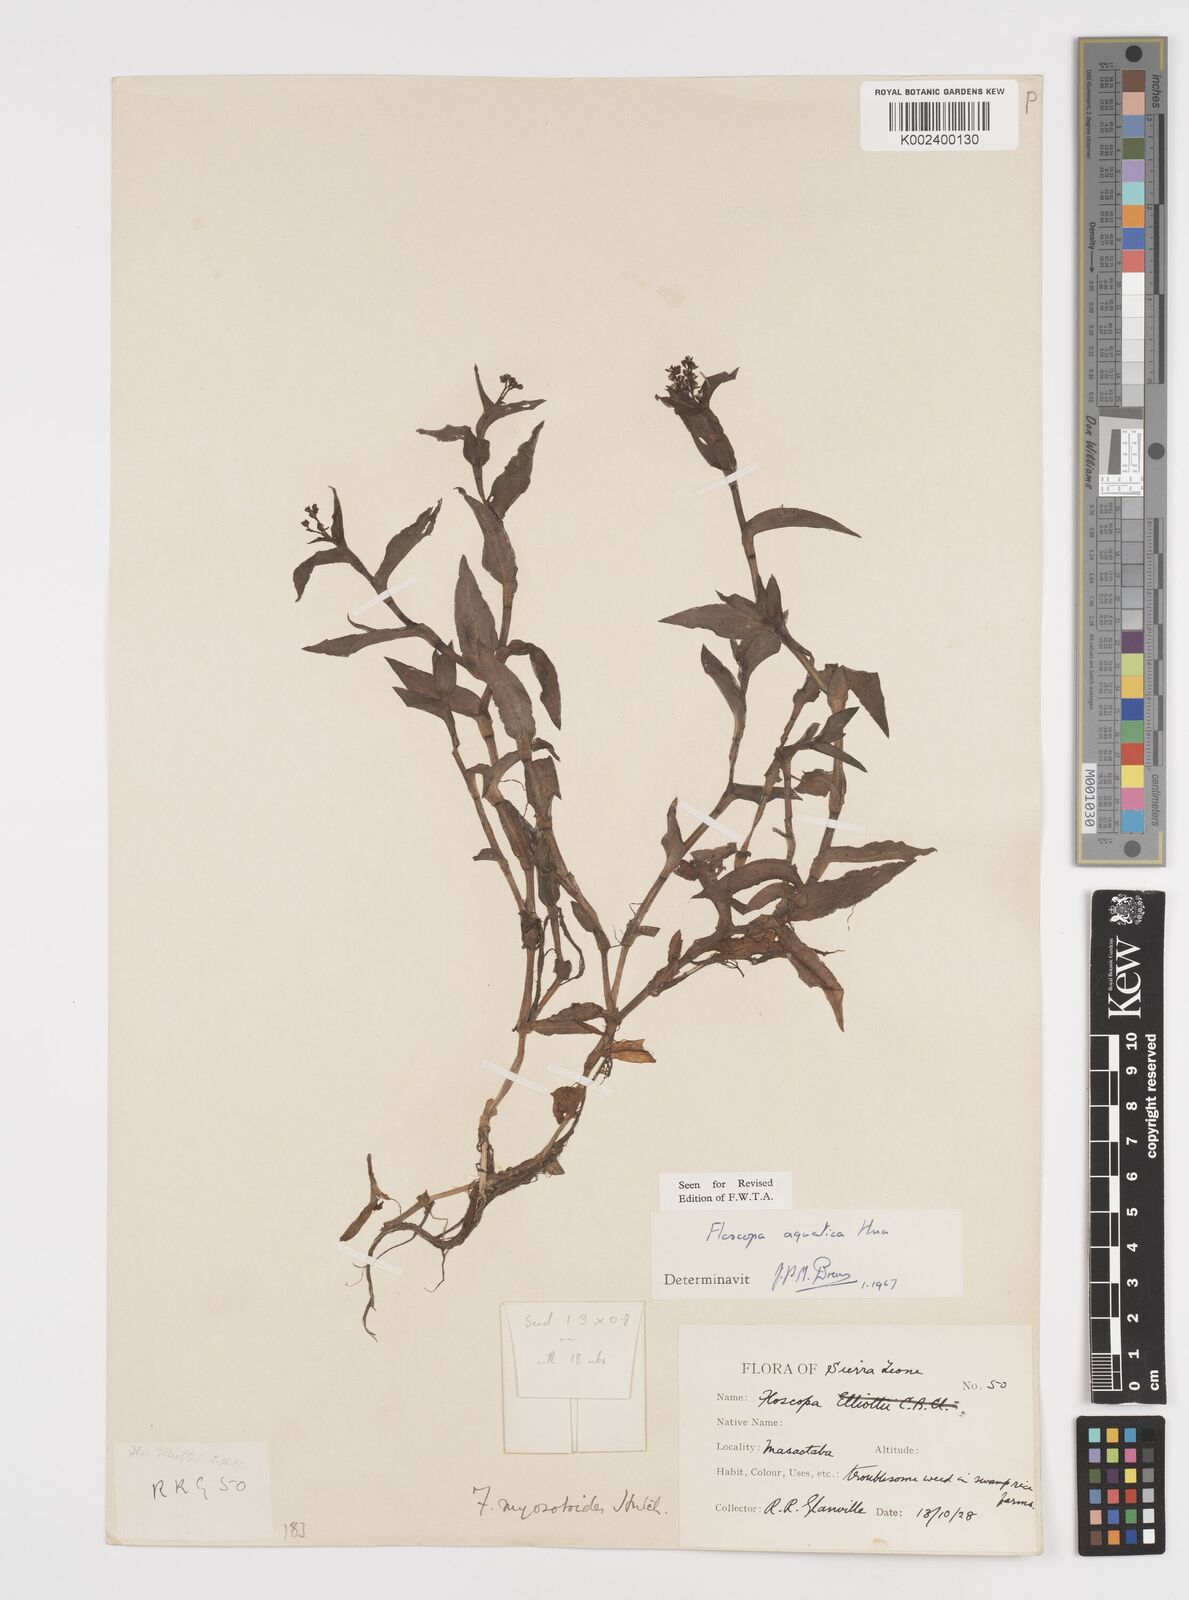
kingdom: Plantae
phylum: Tracheophyta
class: Liliopsida
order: Commelinales
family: Commelinaceae
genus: Floscopa
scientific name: Floscopa aquatica
